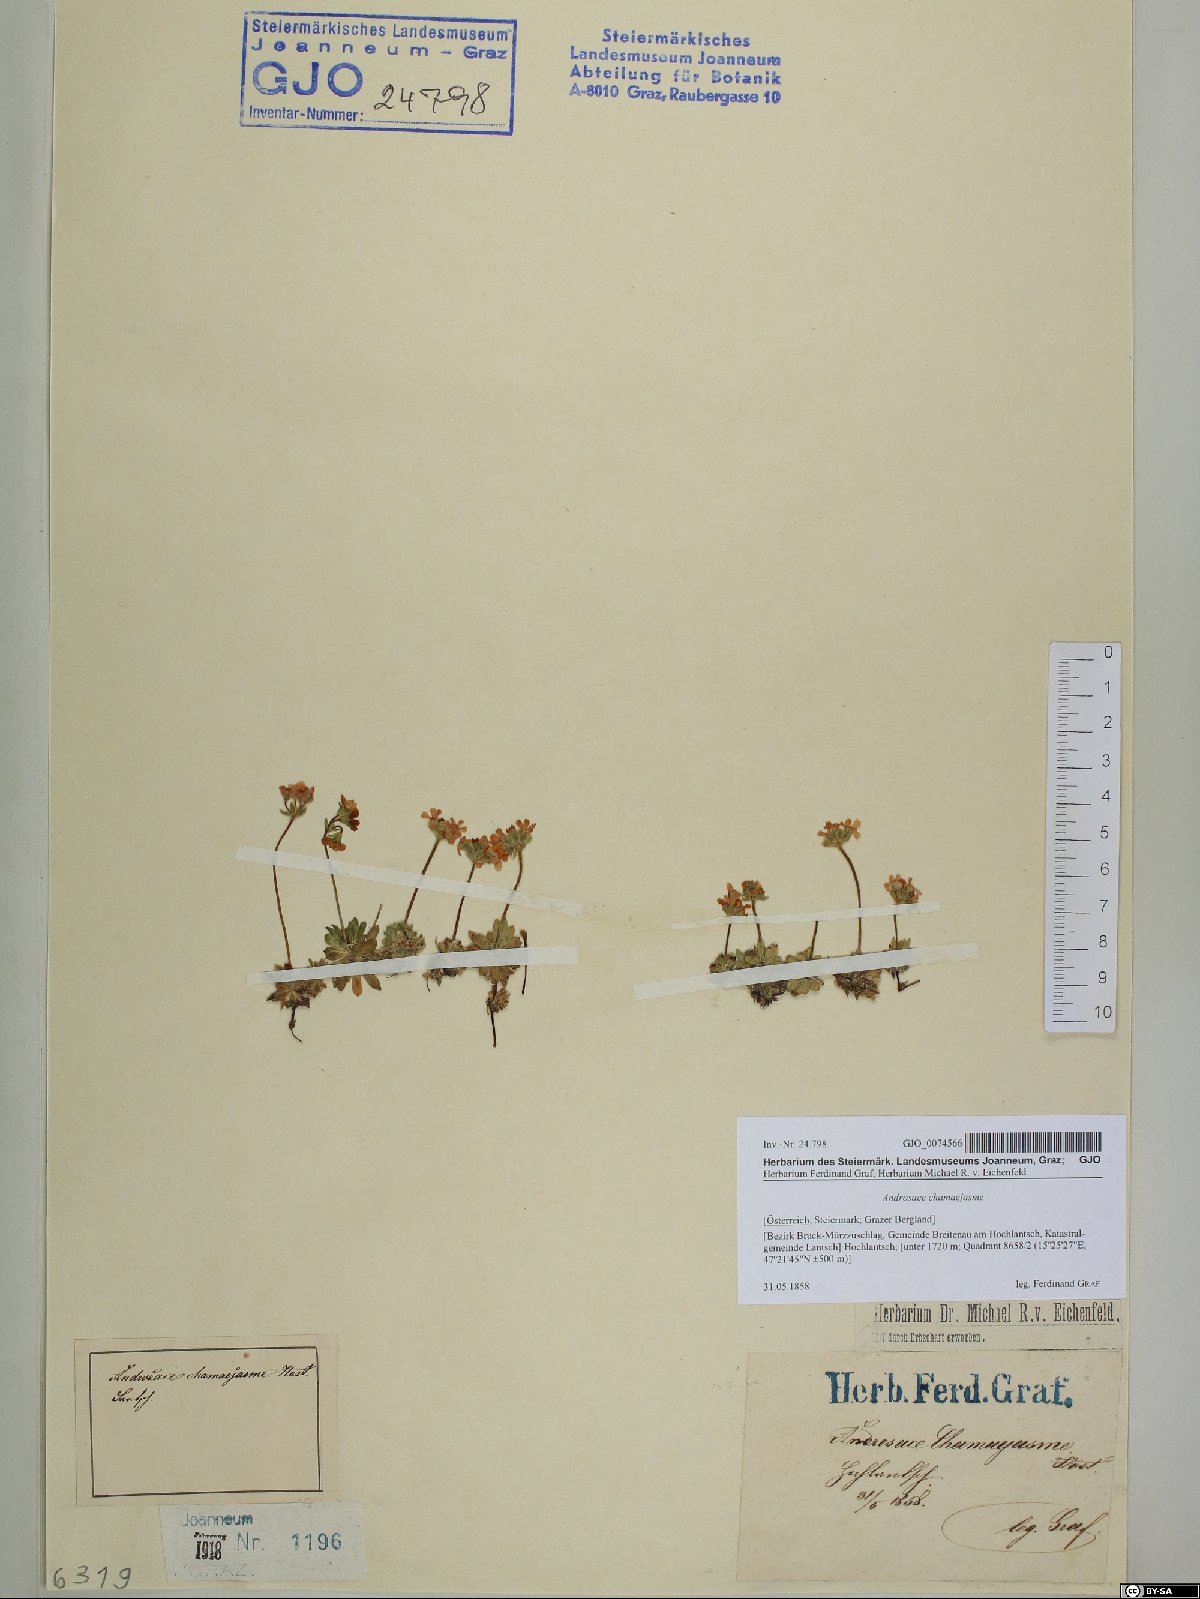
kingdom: Plantae
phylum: Tracheophyta
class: Magnoliopsida
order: Ericales
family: Primulaceae
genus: Androsace
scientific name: Androsace chamaejasme
